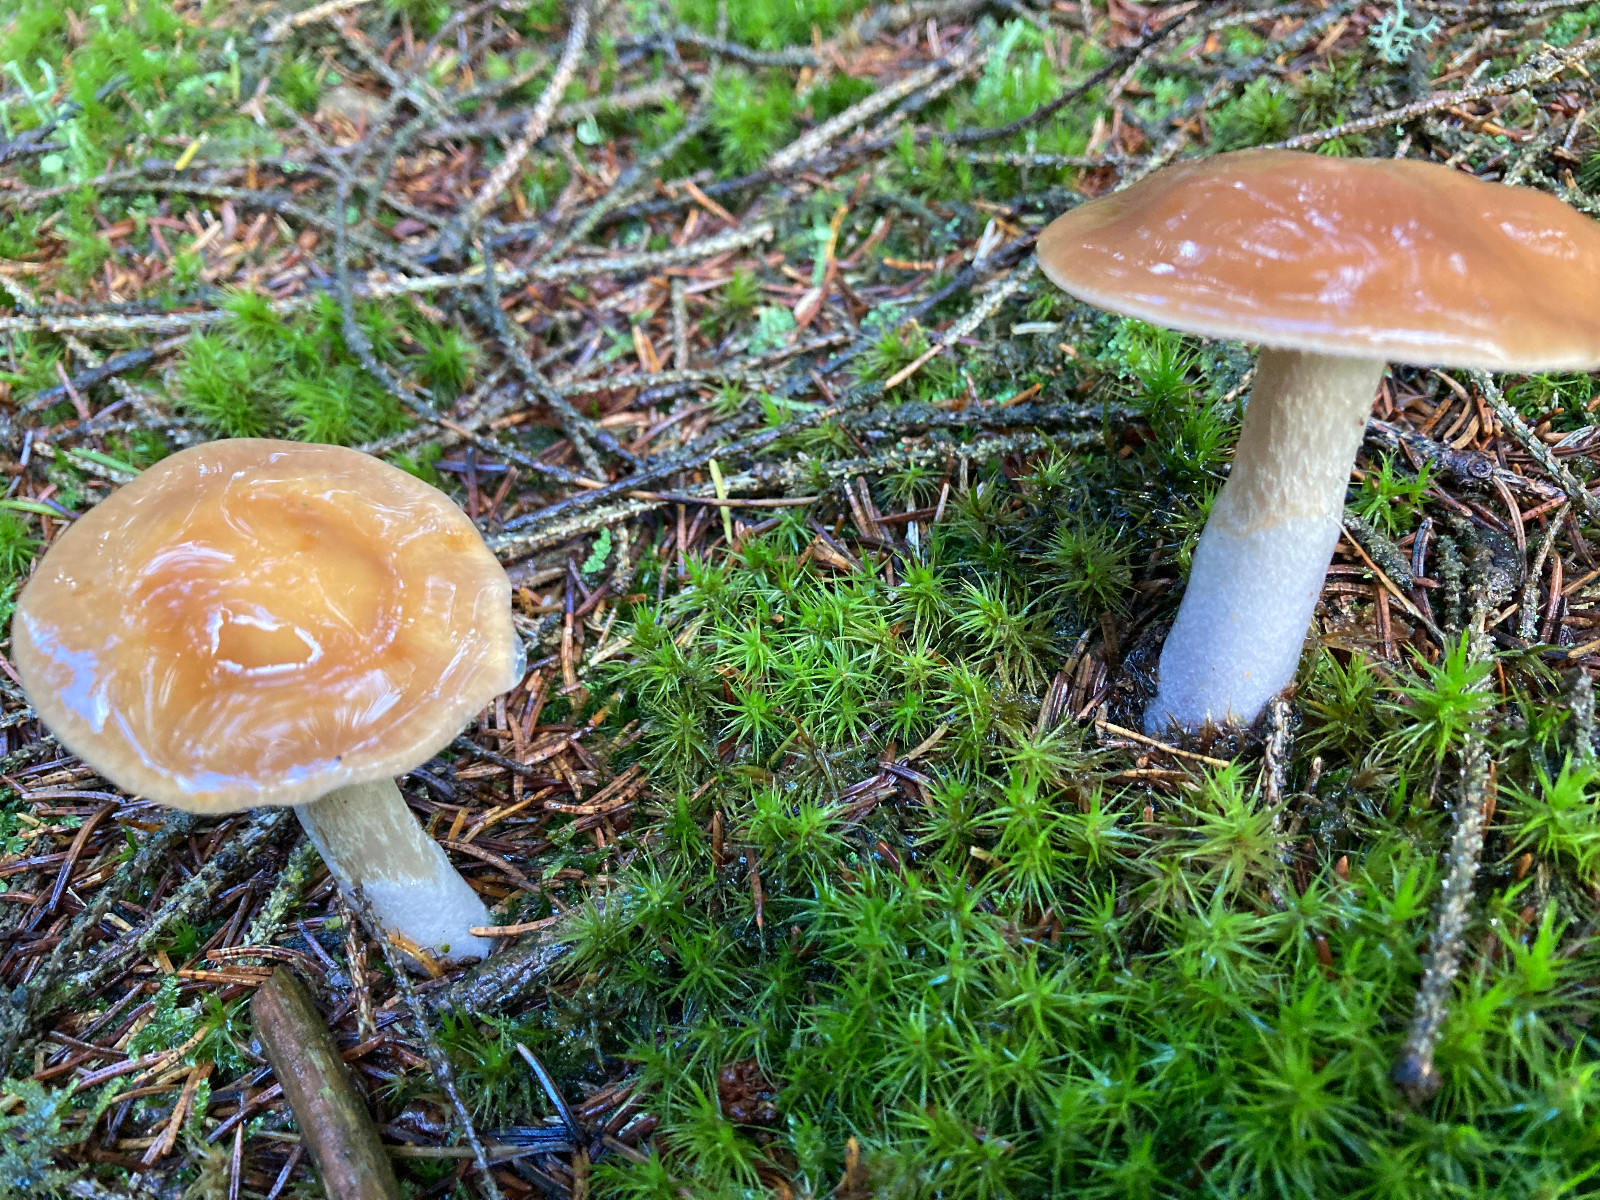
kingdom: Fungi
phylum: Basidiomycota
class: Agaricomycetes
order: Agaricales
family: Cortinariaceae
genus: Cortinarius
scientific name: Cortinarius stillatitius
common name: honningduftende slørhat
